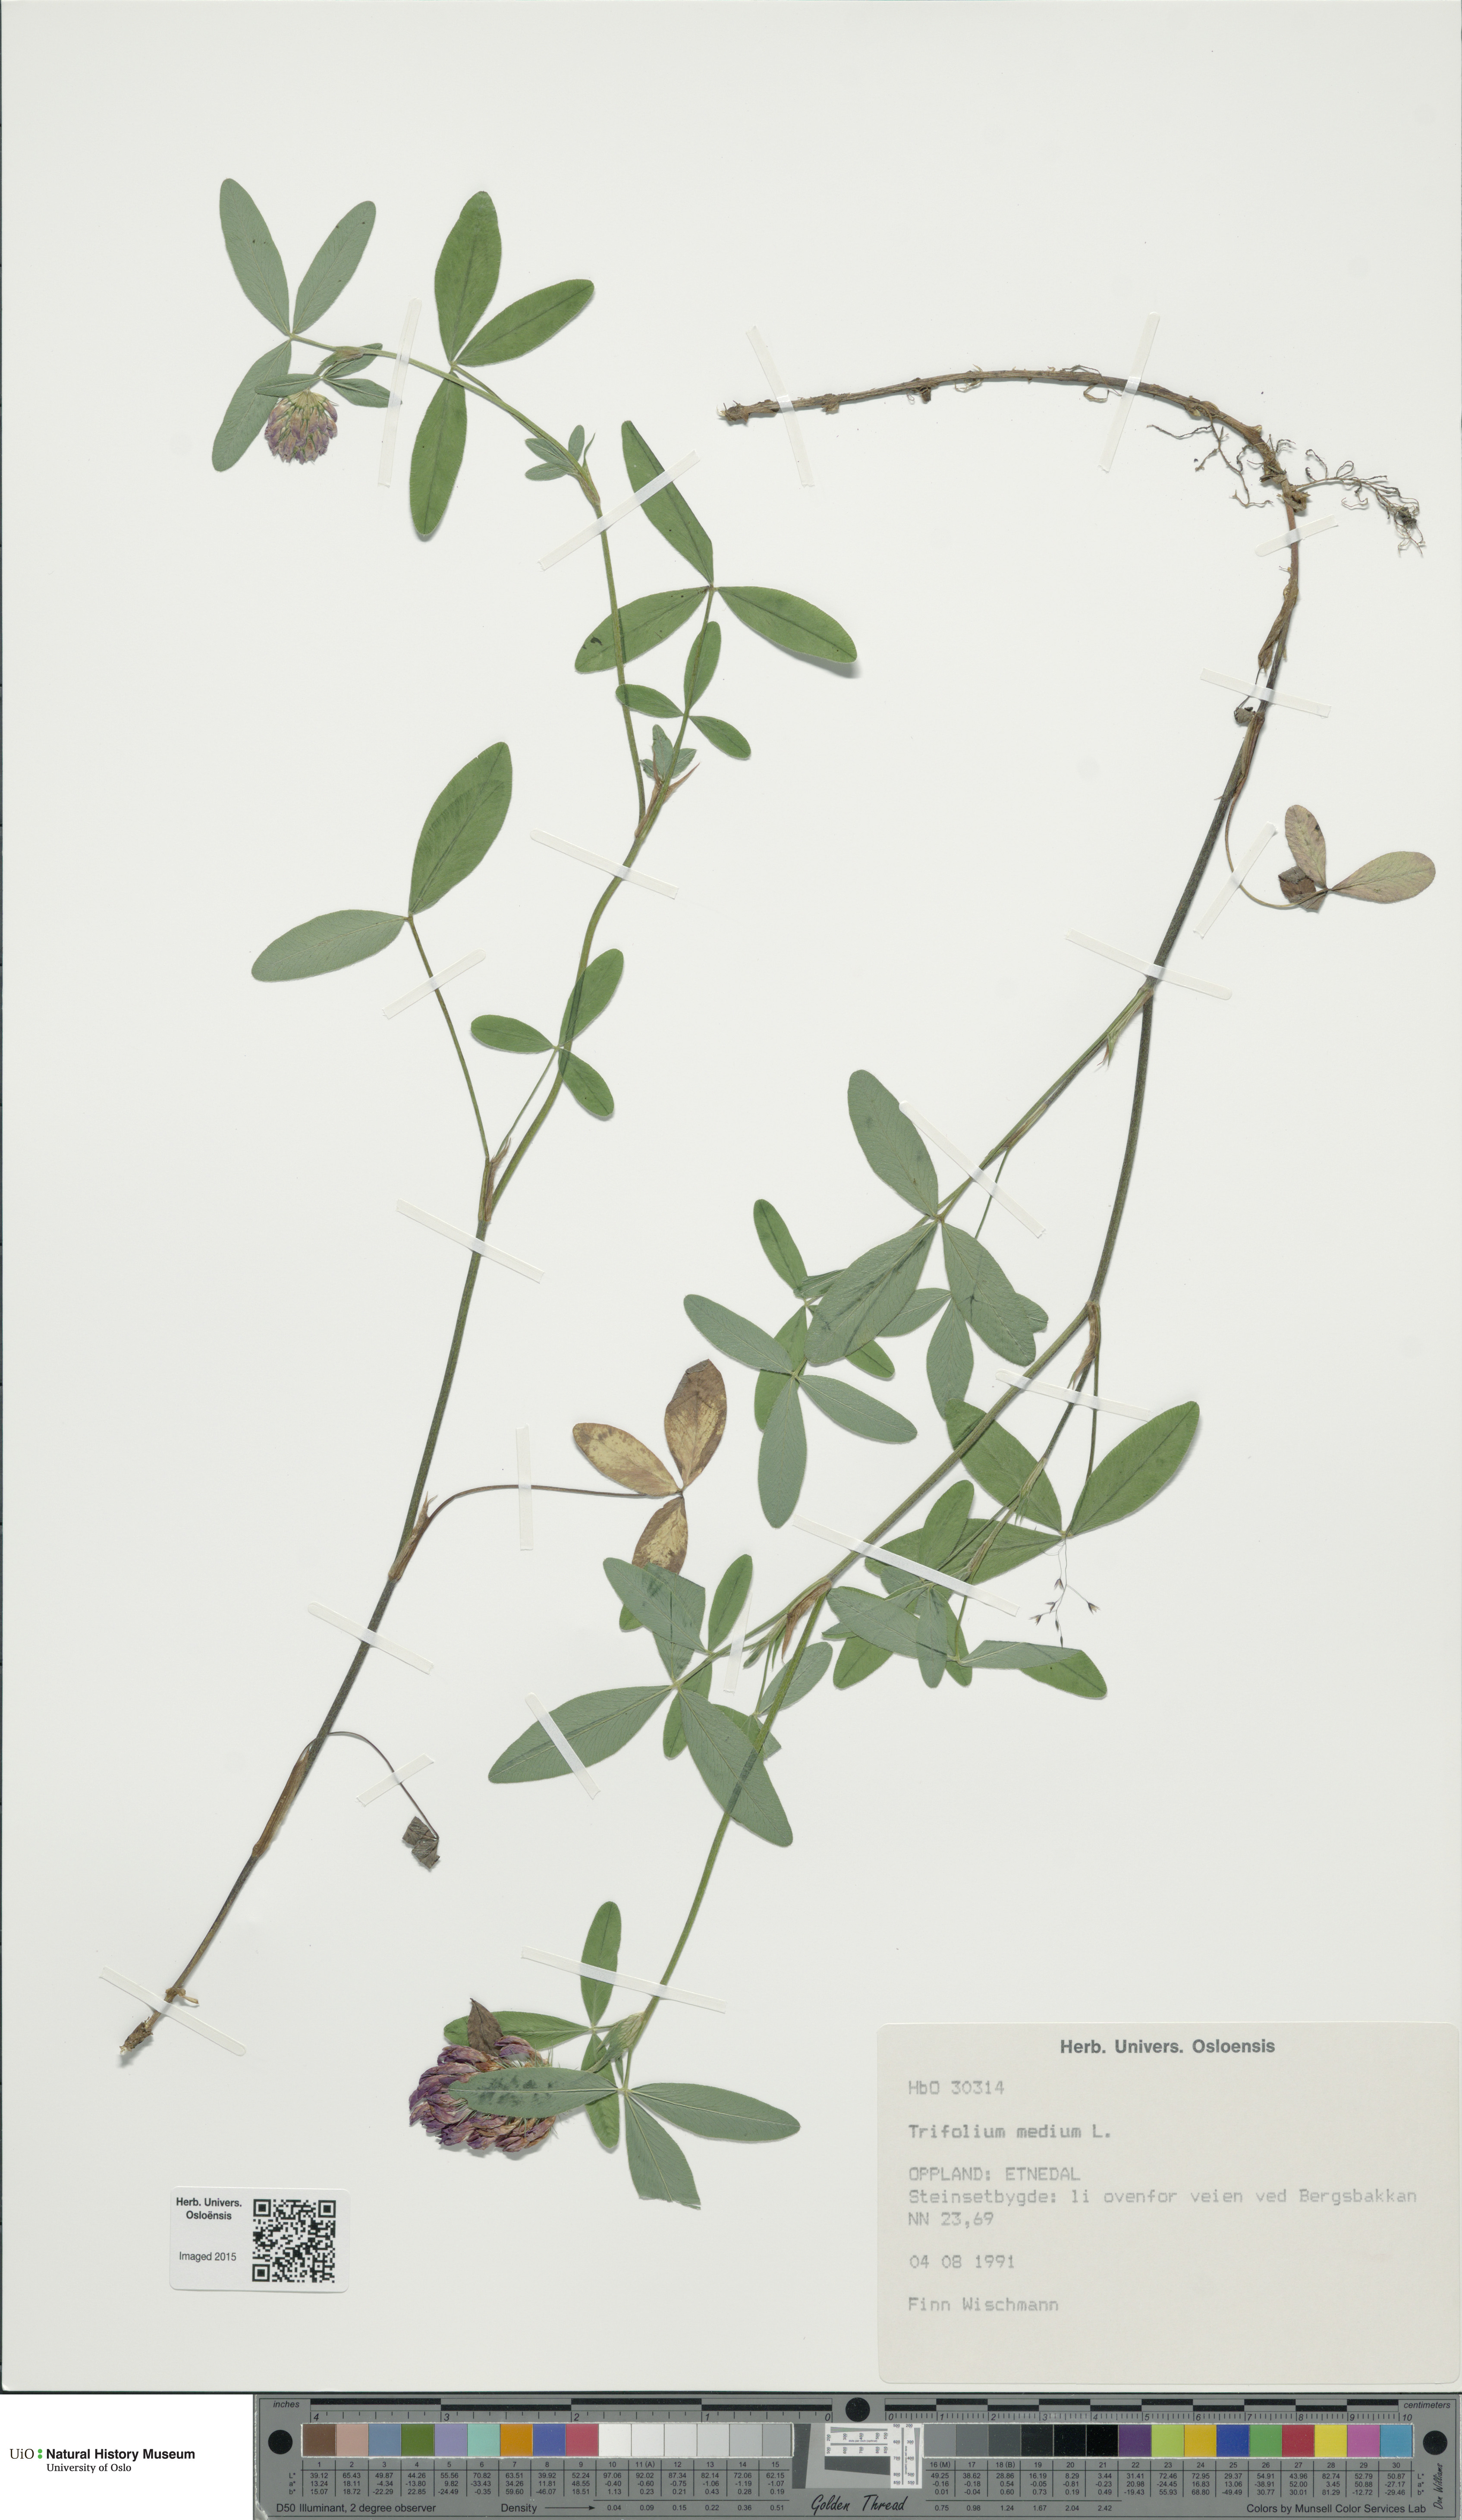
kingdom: Plantae
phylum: Tracheophyta
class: Magnoliopsida
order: Fabales
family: Fabaceae
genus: Trifolium
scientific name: Trifolium medium
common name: Zigzag clover
